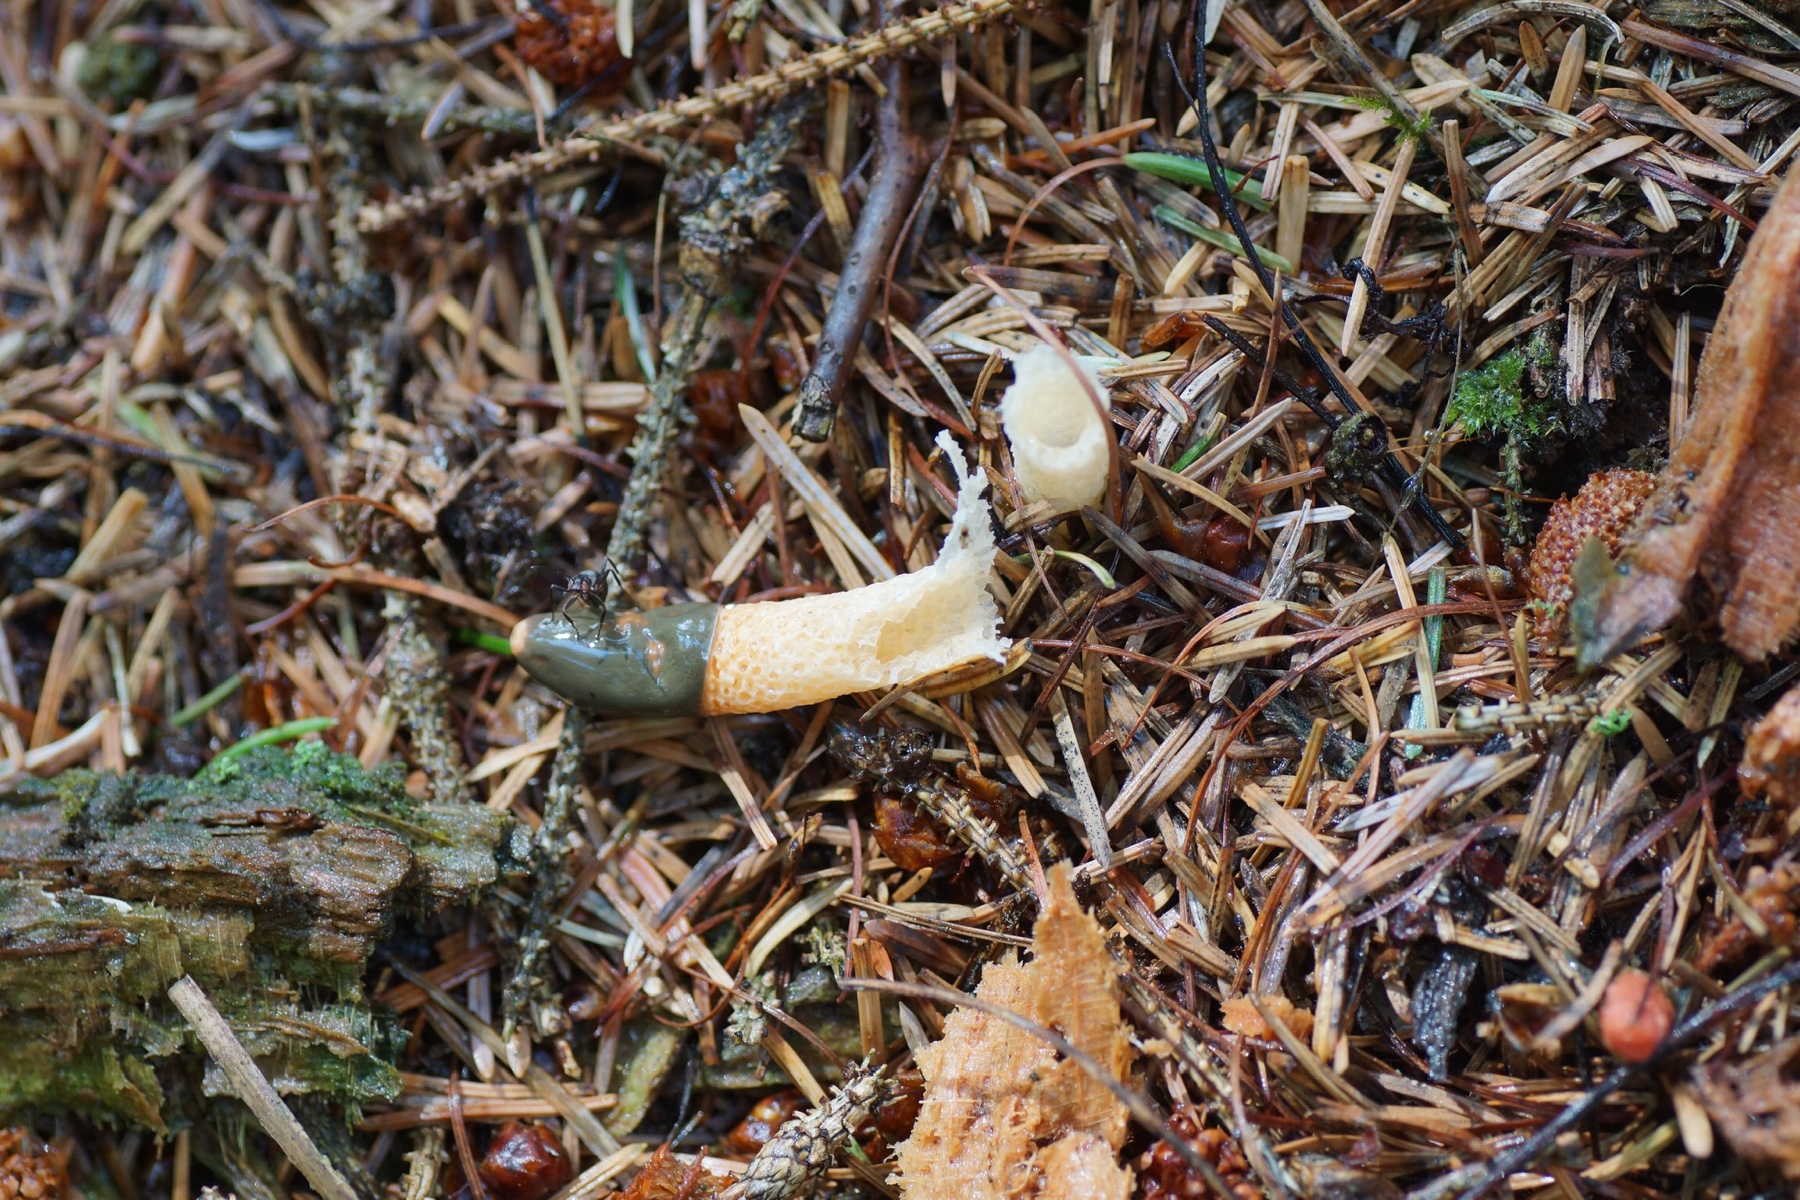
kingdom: Fungi
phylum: Basidiomycota
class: Agaricomycetes
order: Phallales
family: Phallaceae
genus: Mutinus
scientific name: Mutinus caninus
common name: hunde-stinksvamp
